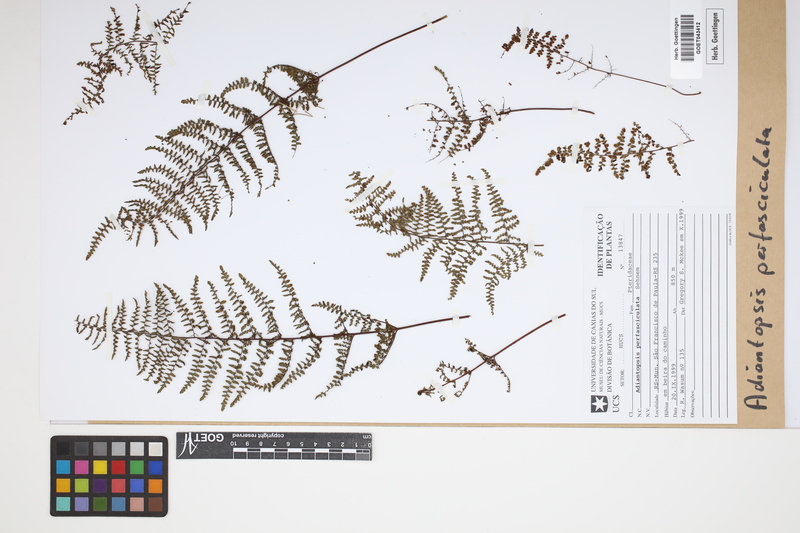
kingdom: Plantae
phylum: Tracheophyta
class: Polypodiopsida
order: Polypodiales
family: Pteridaceae
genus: Adiantopsis
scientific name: Adiantopsis perfasciculata
